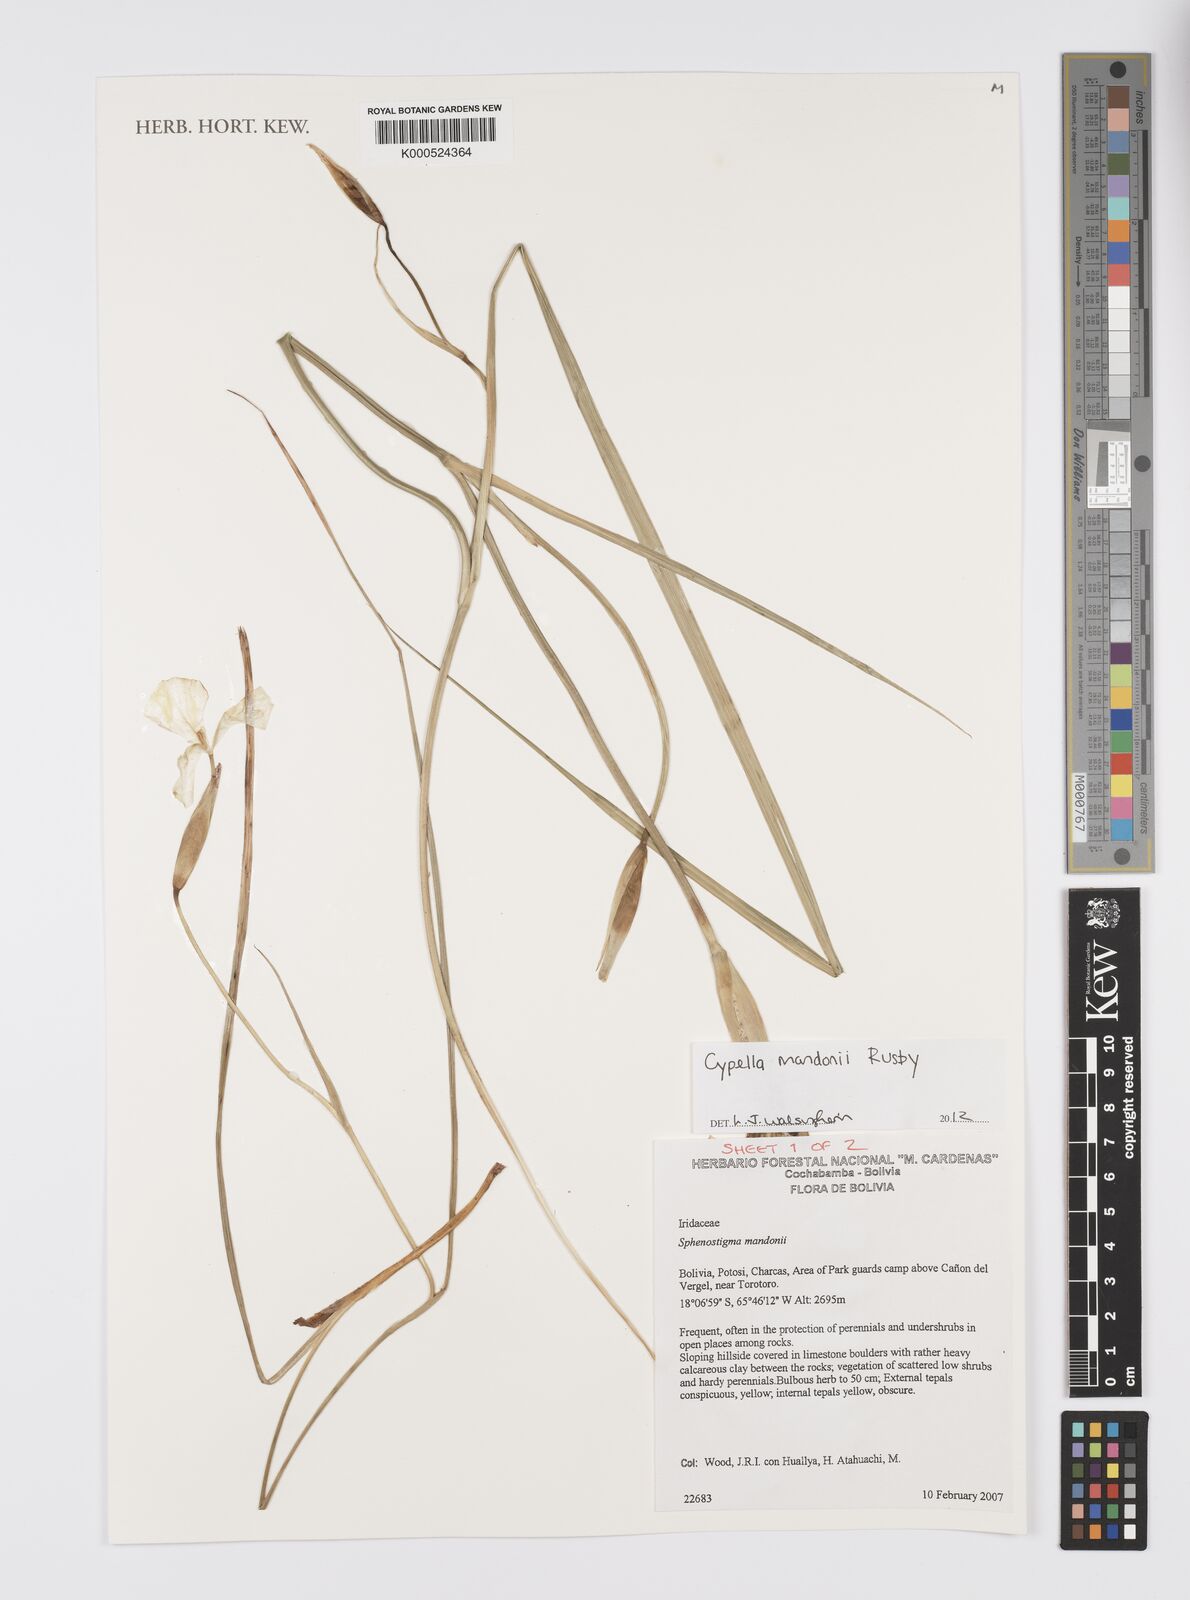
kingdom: Plantae
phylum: Tracheophyta
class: Liliopsida
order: Asparagales
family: Iridaceae
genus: Cypella
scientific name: Cypella mandonii
